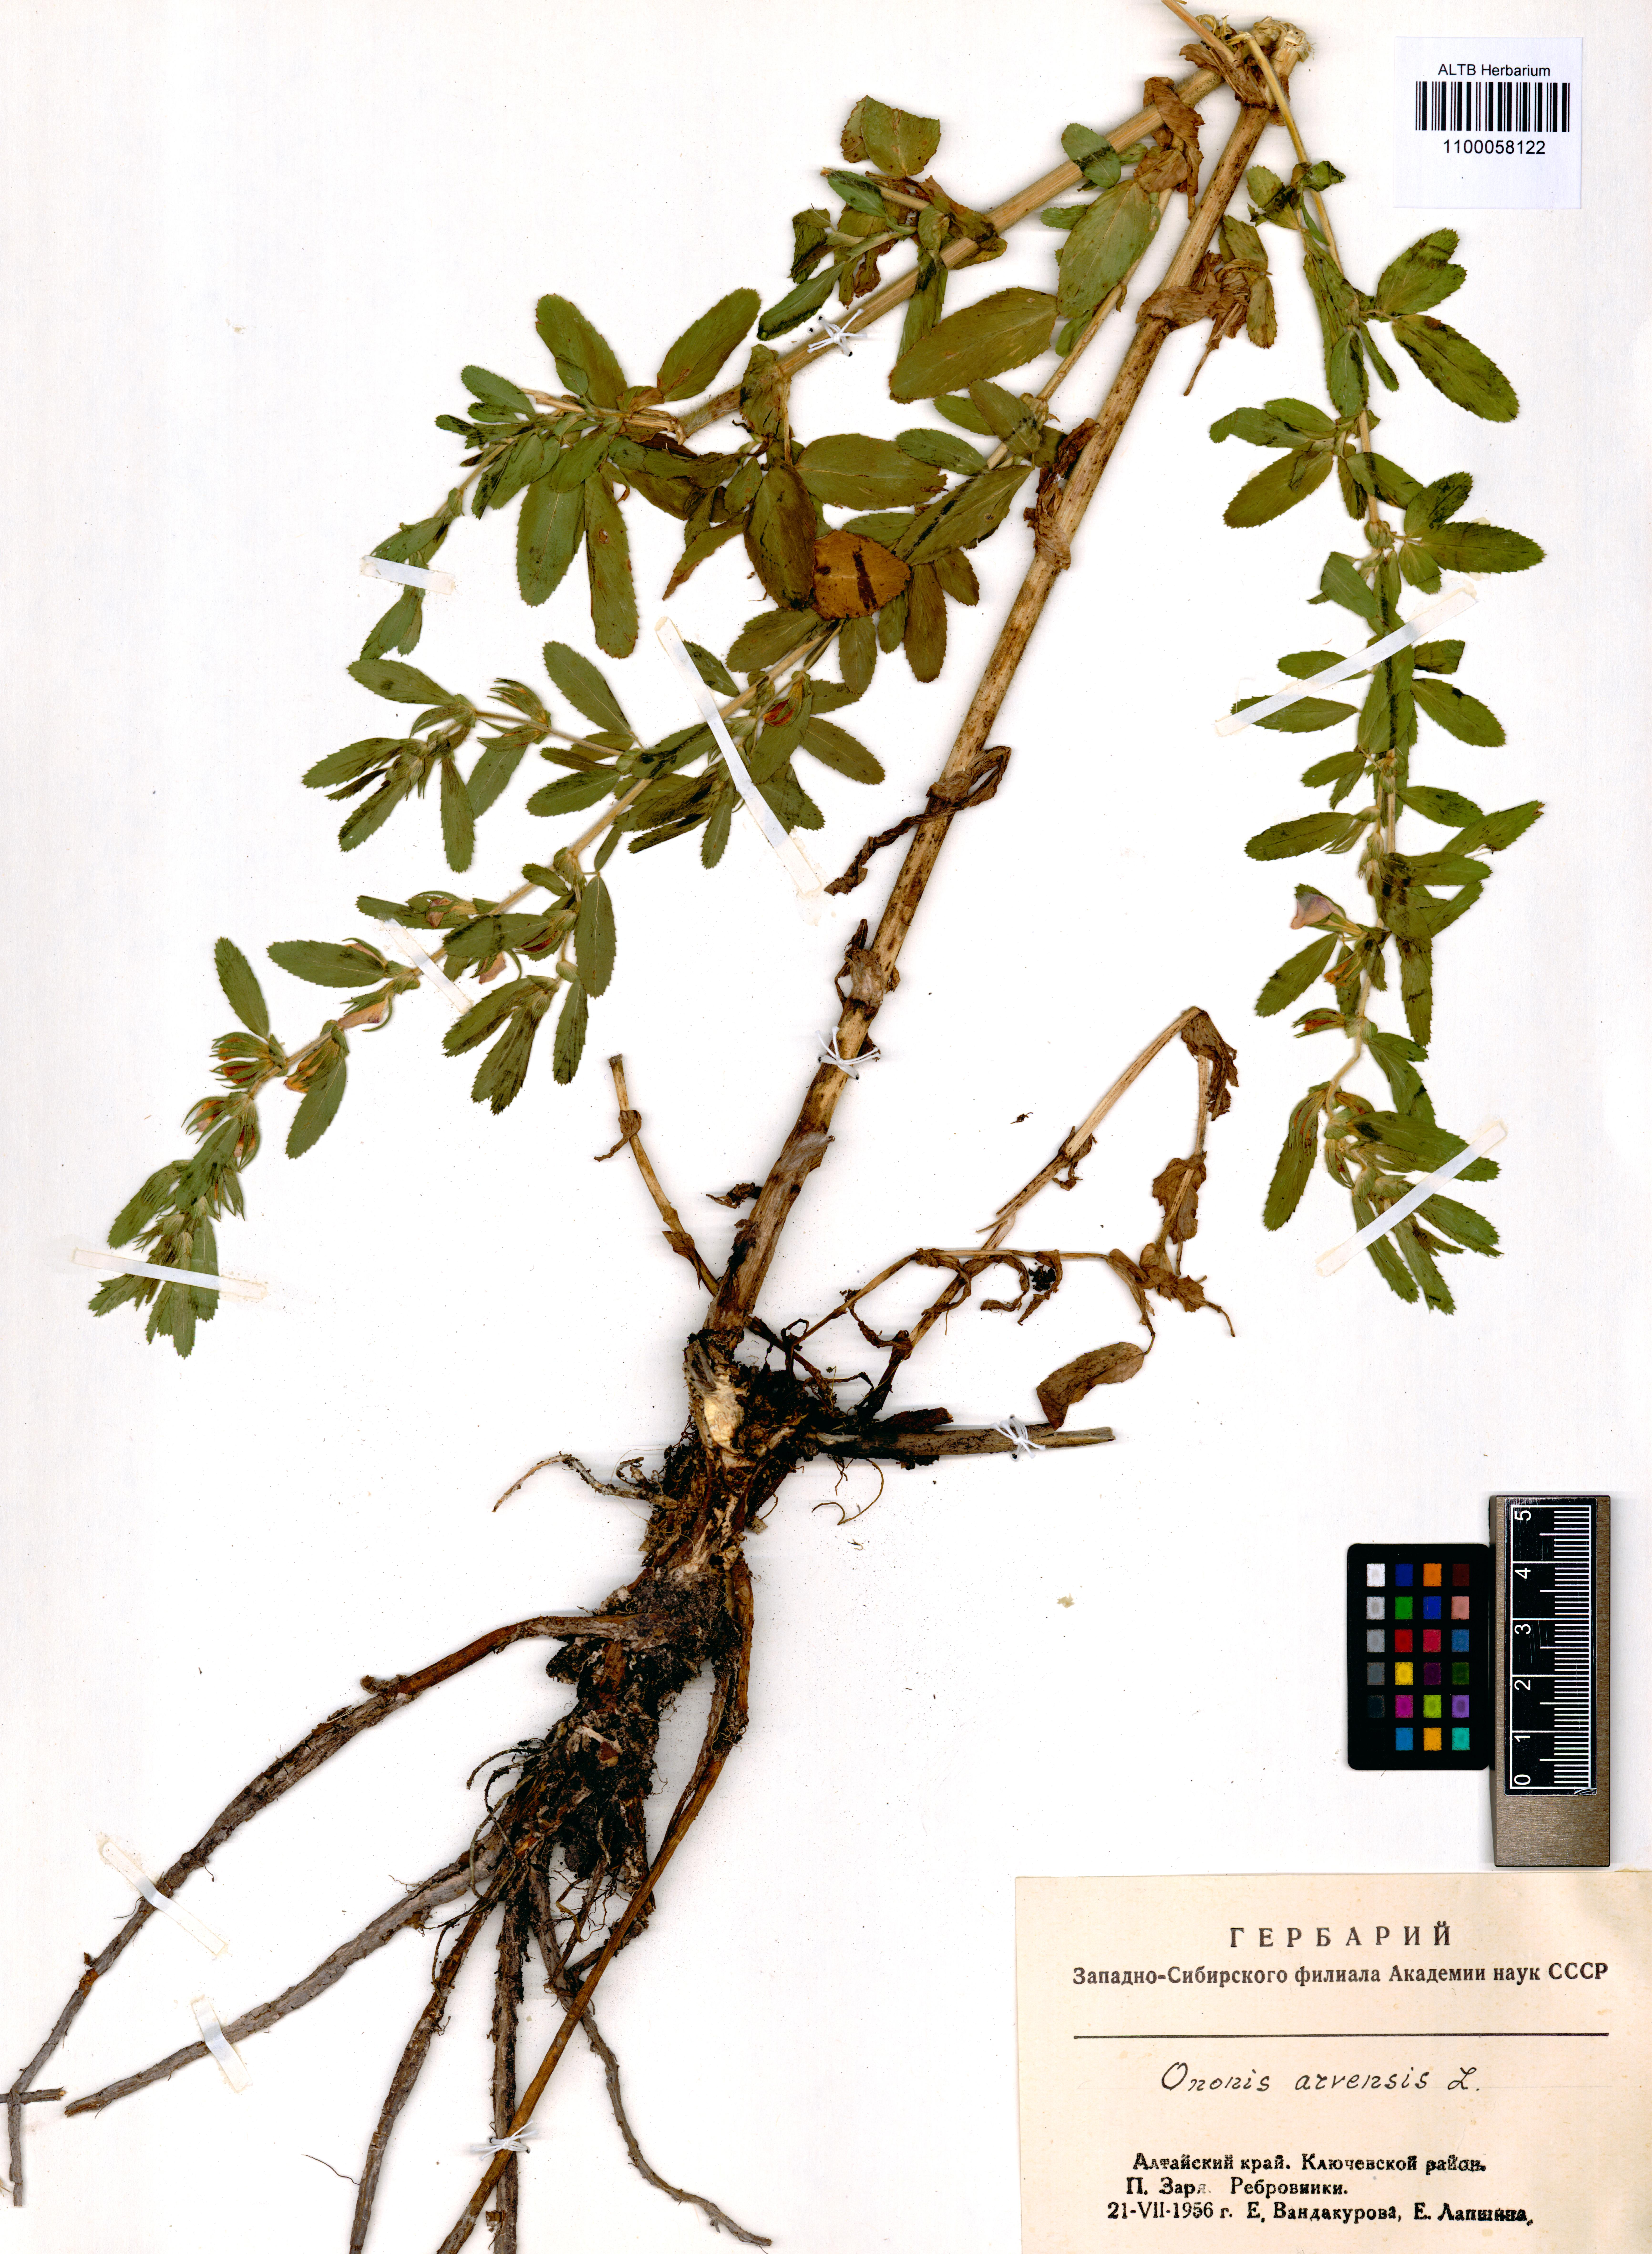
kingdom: Plantae
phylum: Tracheophyta
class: Magnoliopsida
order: Fabales
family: Fabaceae
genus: Ononis
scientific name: Ononis arvensis
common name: Field restharrow
